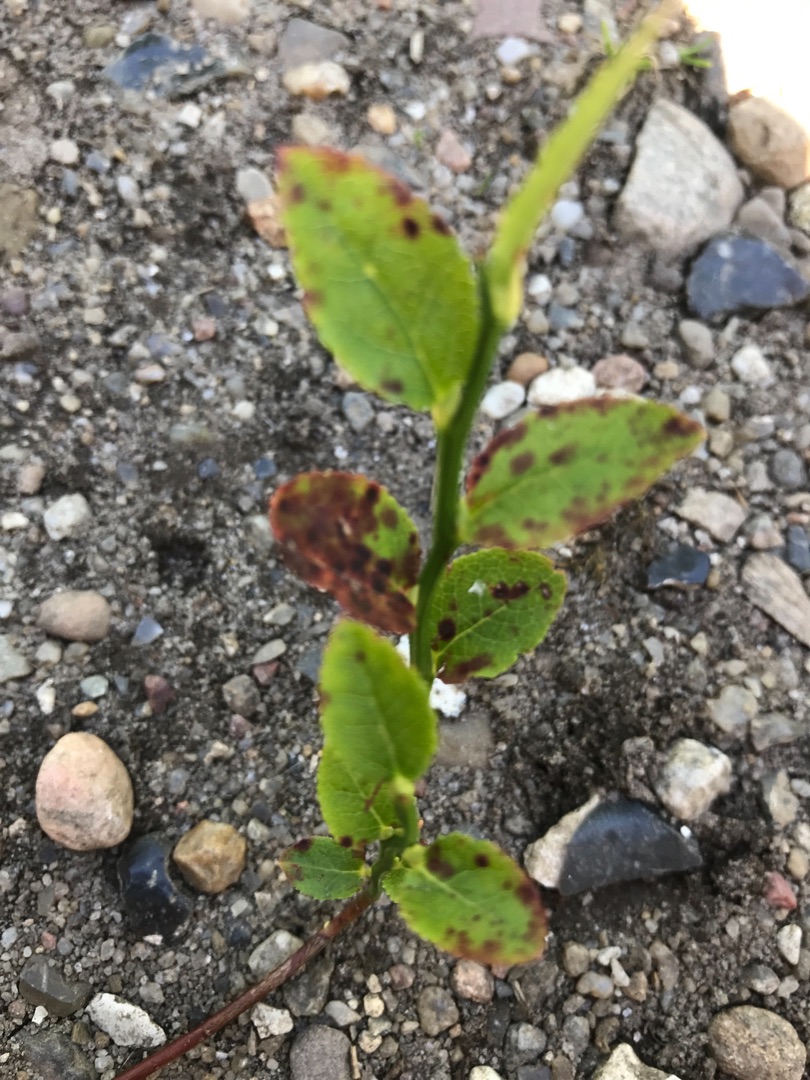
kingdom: Plantae
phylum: Tracheophyta
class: Magnoliopsida
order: Ericales
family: Ericaceae
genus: Vaccinium
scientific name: Vaccinium myrtillus
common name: Blåbær
